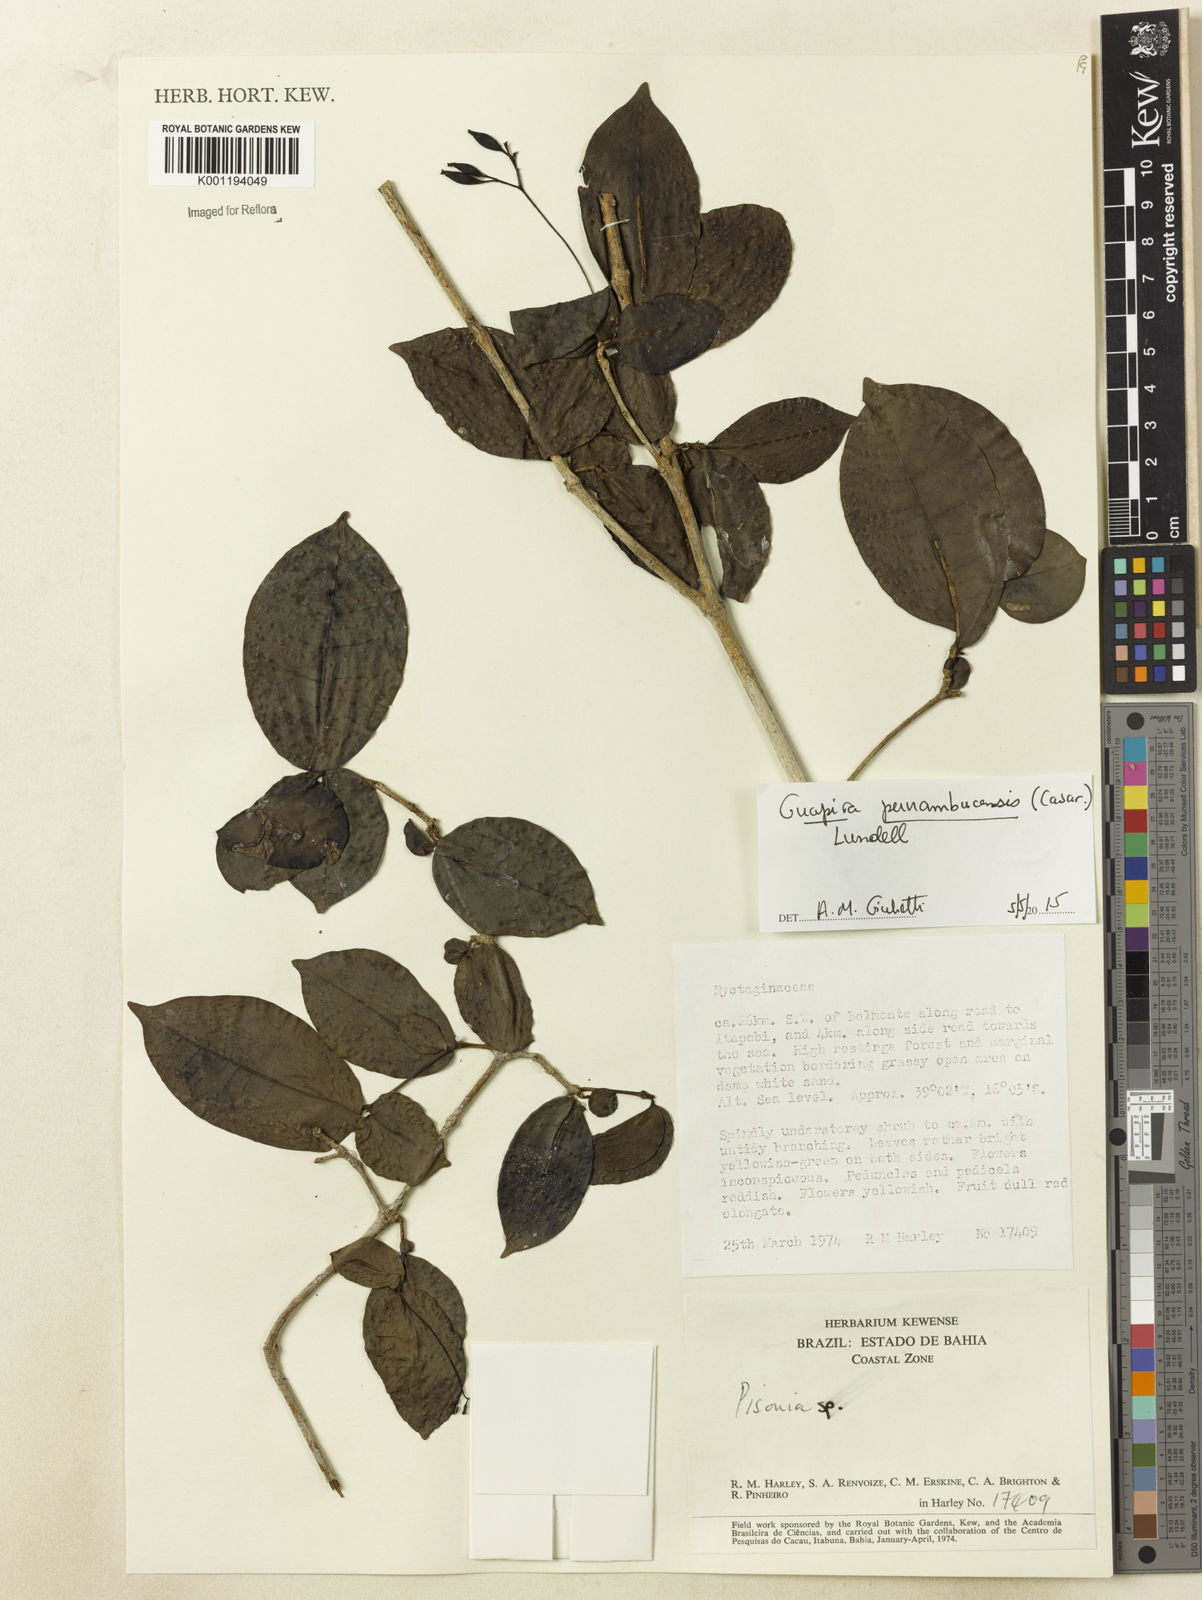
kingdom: Plantae
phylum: Tracheophyta
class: Magnoliopsida
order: Caryophyllales
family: Nyctaginaceae
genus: Guapira
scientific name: Guapira pernambucensis
